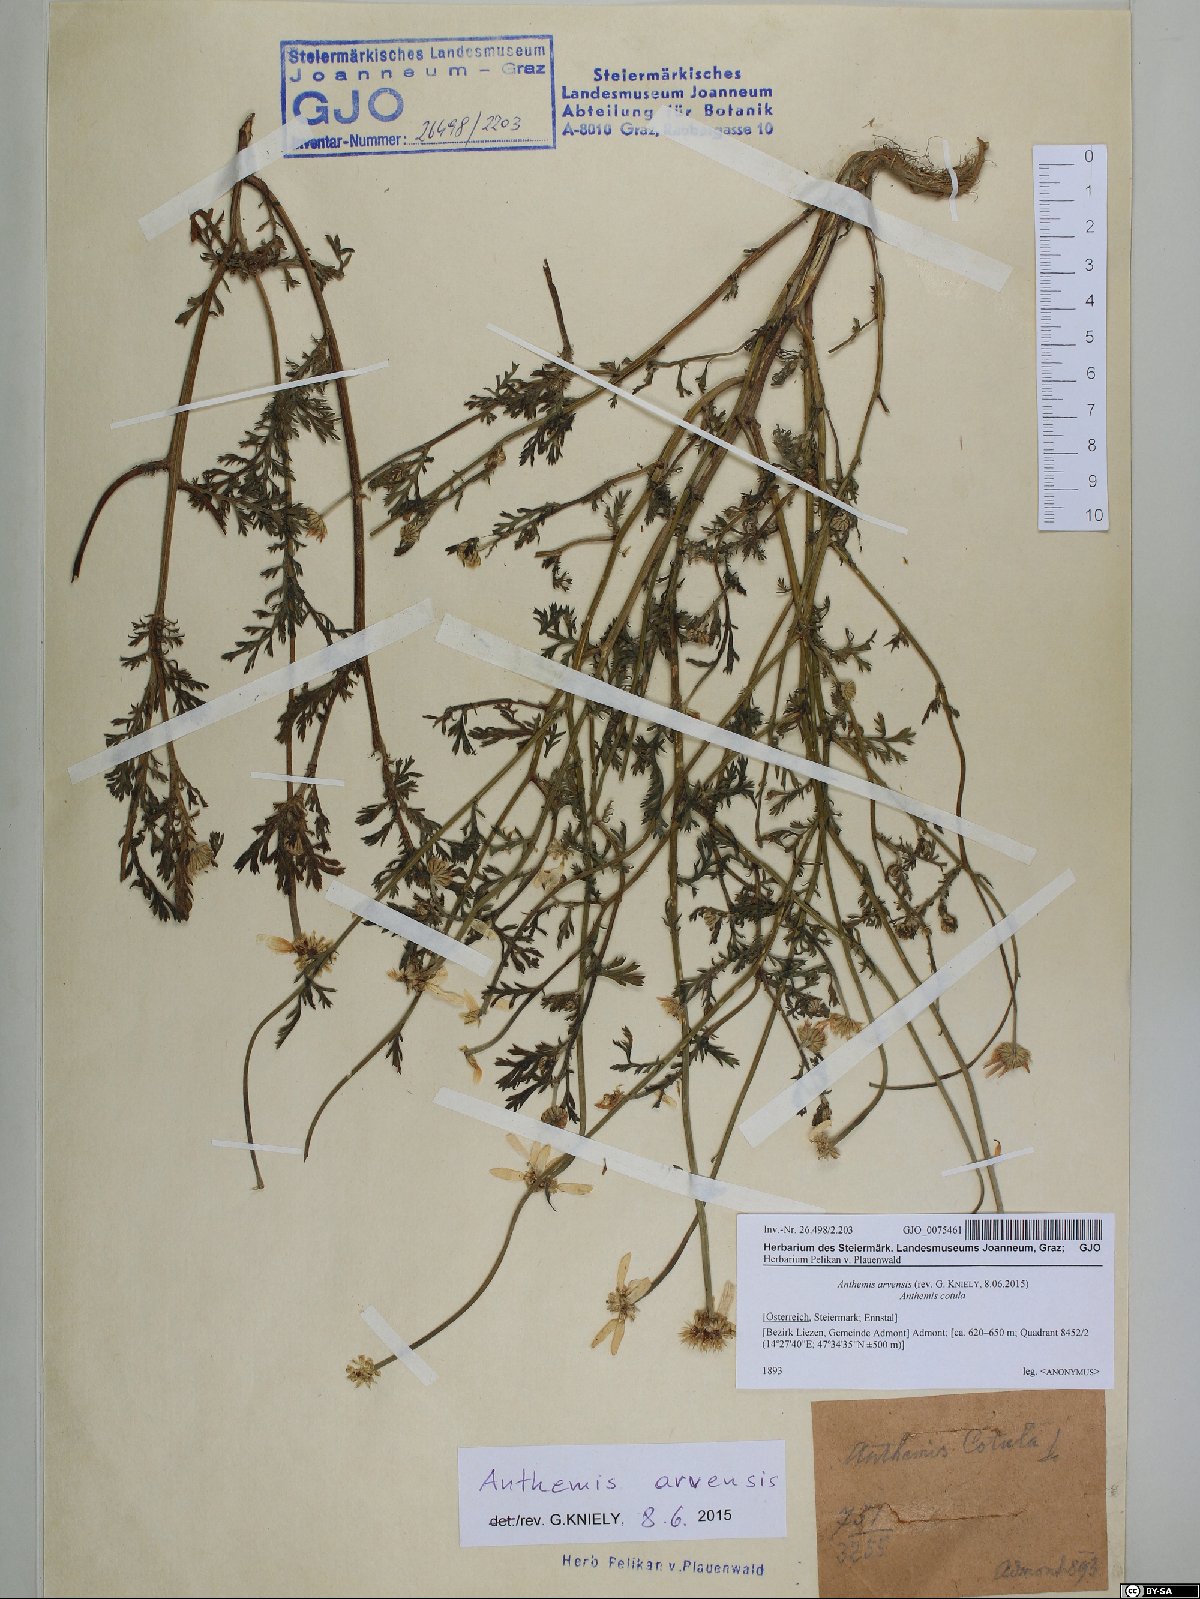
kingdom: Plantae
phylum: Tracheophyta
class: Magnoliopsida
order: Asterales
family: Asteraceae
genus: Anthemis
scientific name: Anthemis arvensis
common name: Corn chamomile
